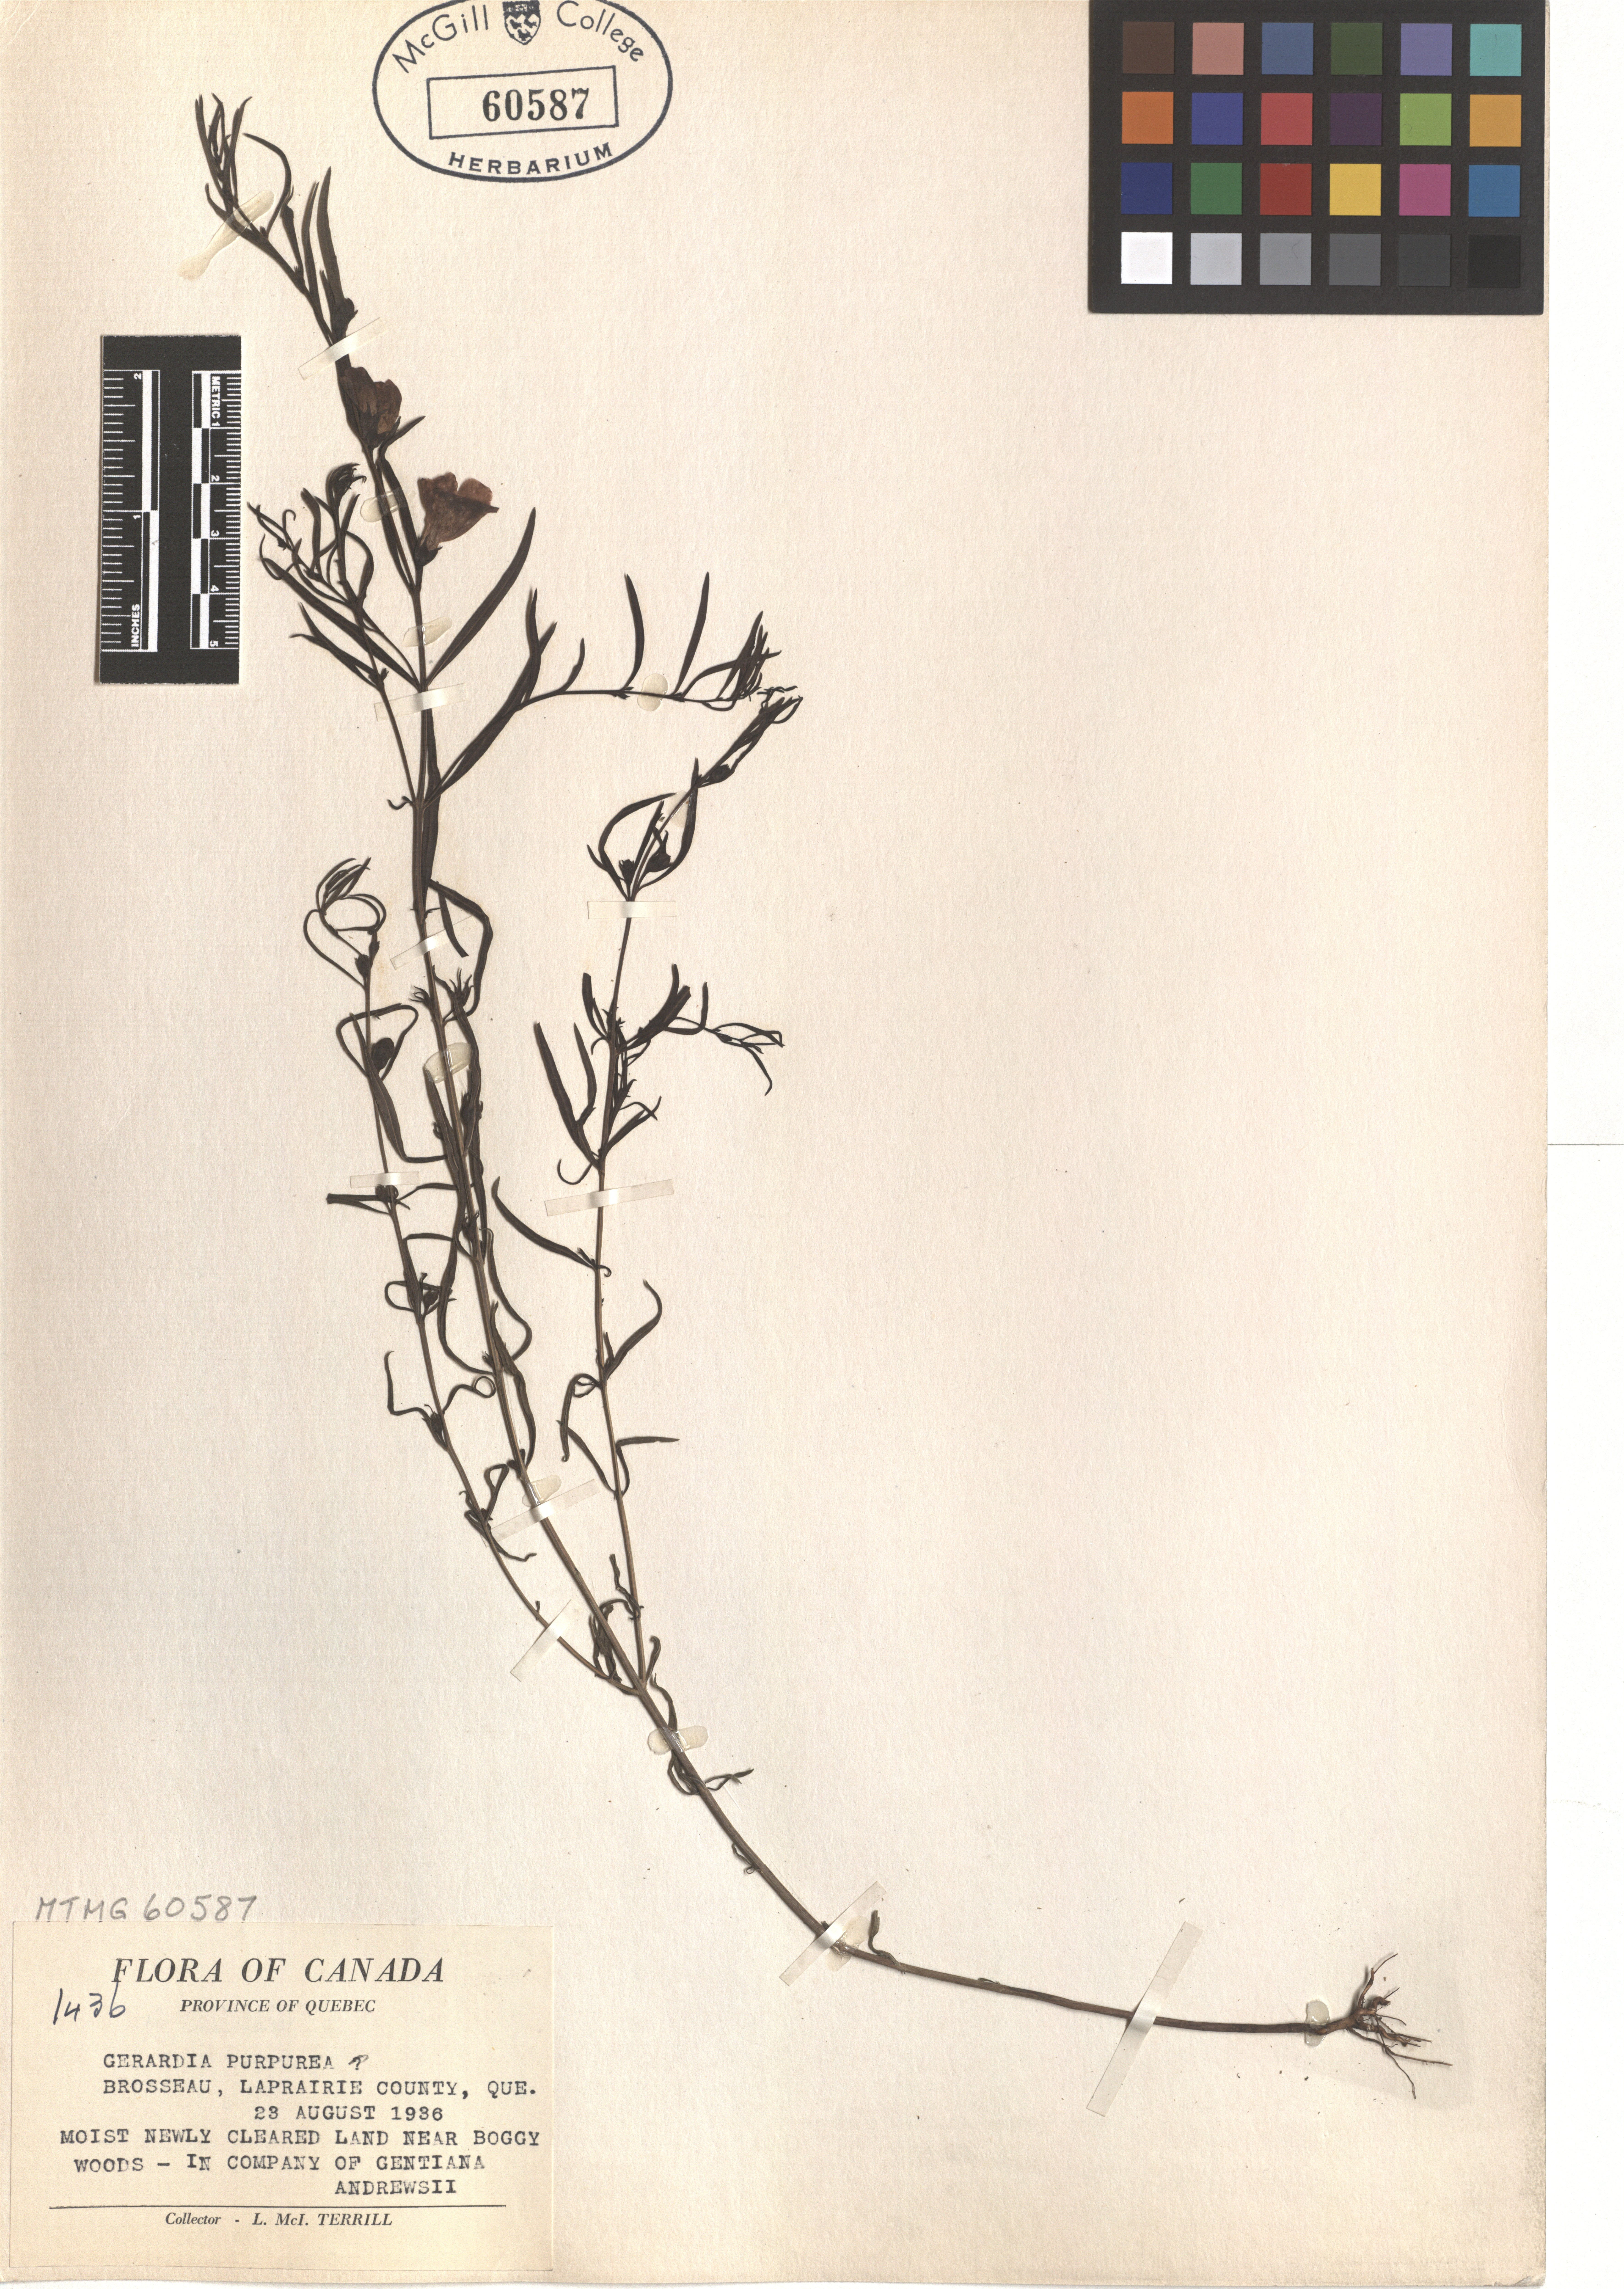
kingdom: Plantae
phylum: Tracheophyta
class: Magnoliopsida
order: Lamiales
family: Orobanchaceae
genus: Agalinis
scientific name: Agalinis purpurea
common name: Purple false foxglove
